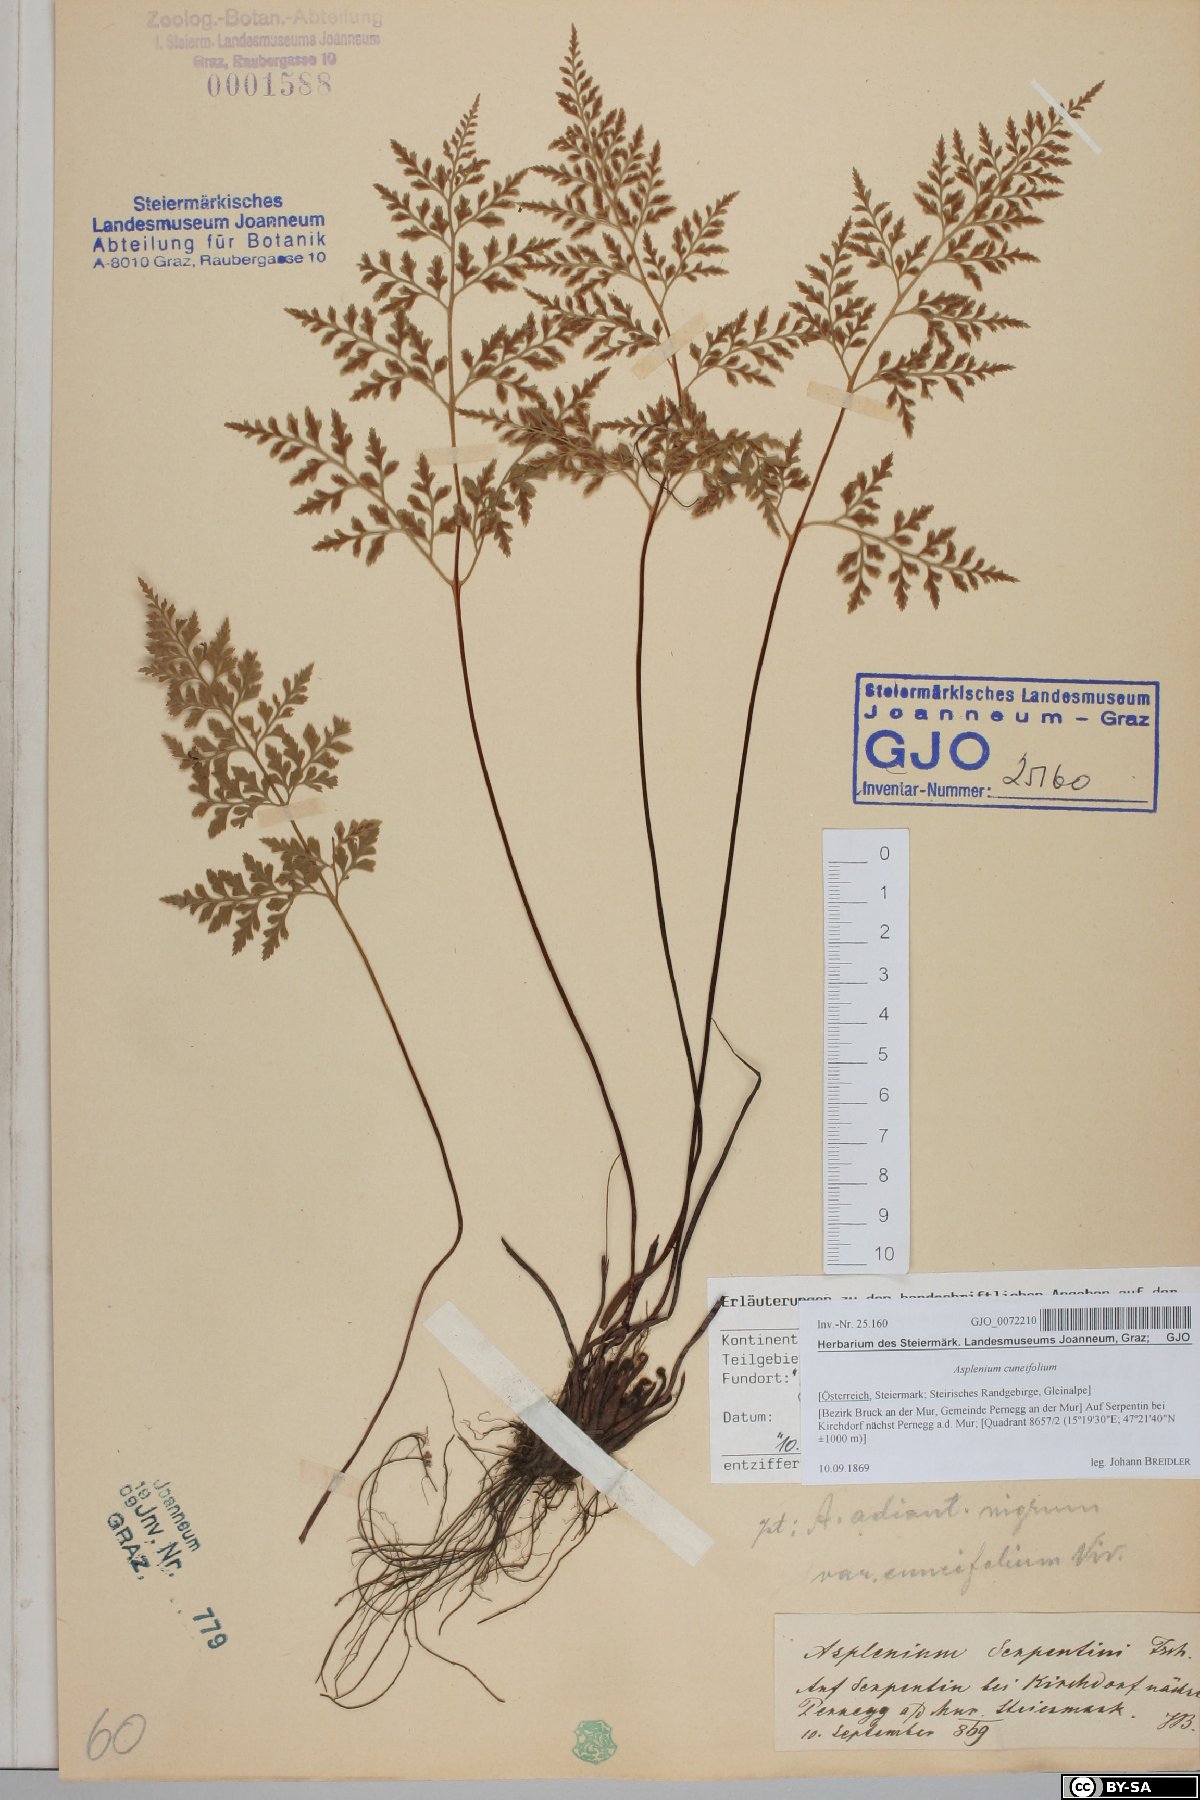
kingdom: Plantae
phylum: Tracheophyta
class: Polypodiopsida
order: Polypodiales
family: Aspleniaceae
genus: Asplenium
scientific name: Asplenium cuneifolium
